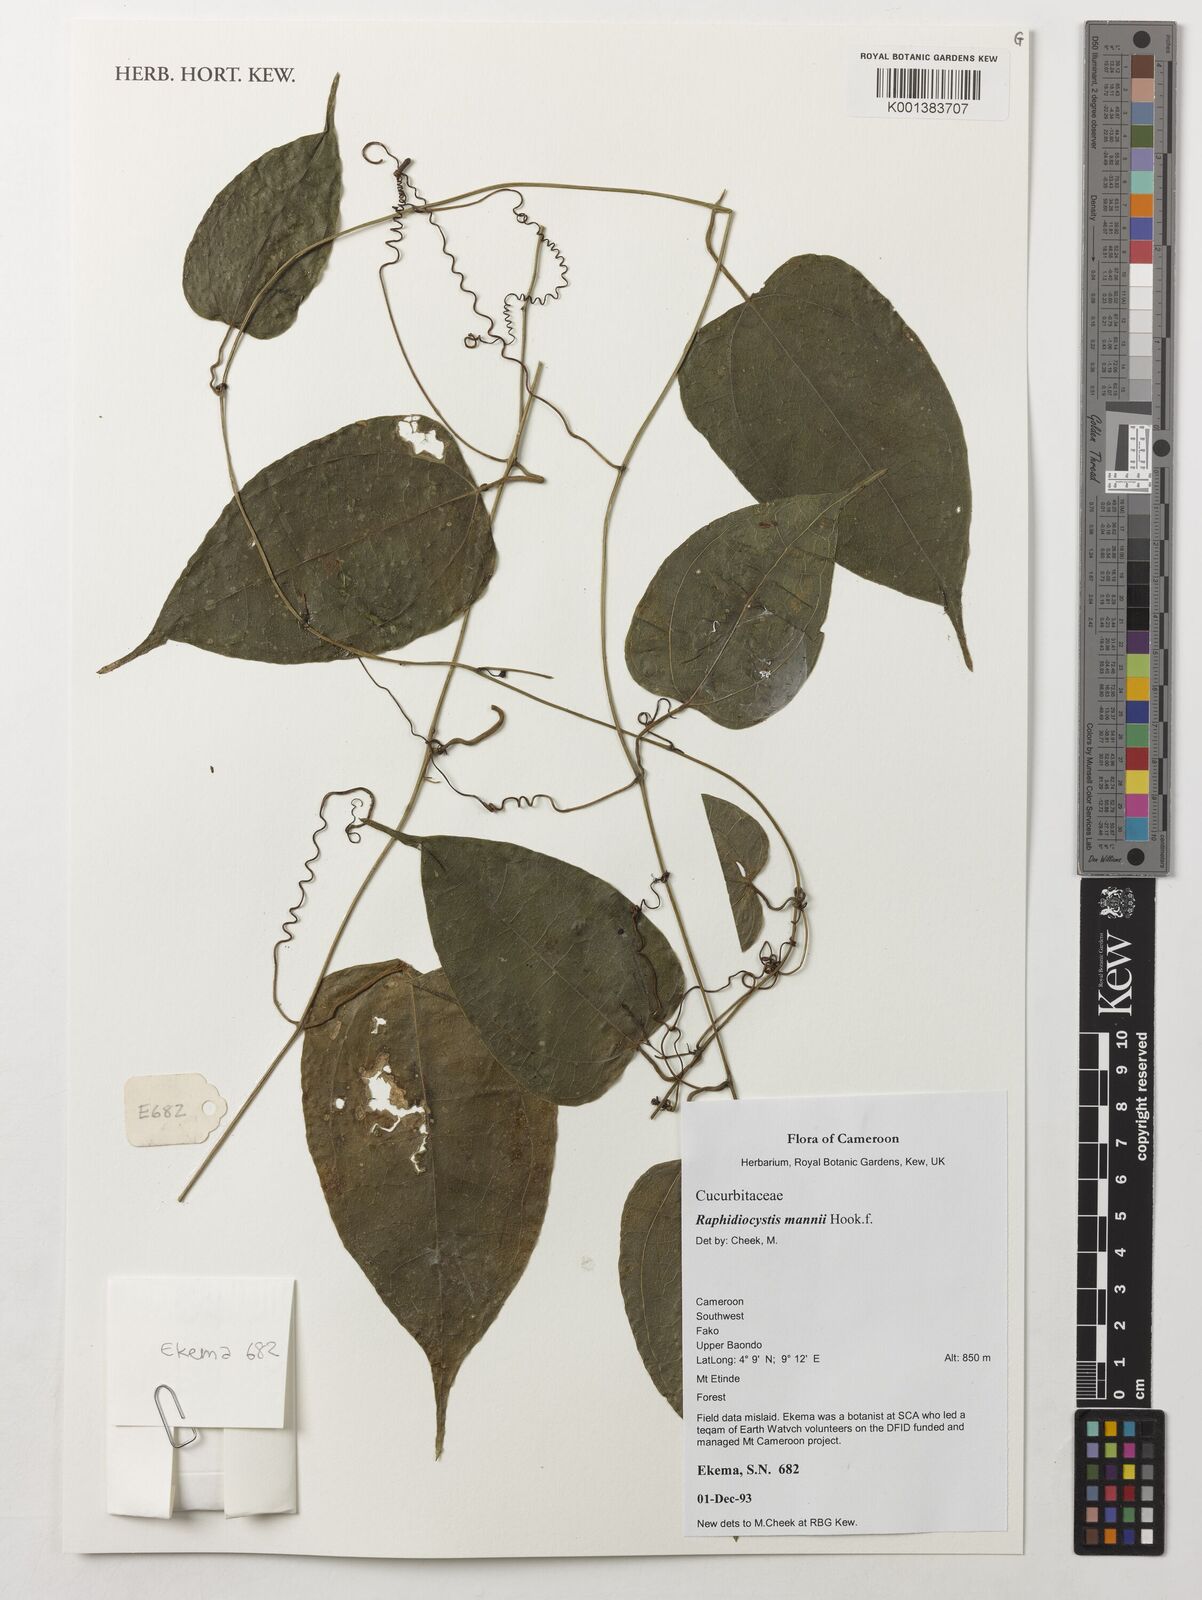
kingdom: Plantae
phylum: Tracheophyta
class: Magnoliopsida
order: Cucurbitales
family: Cucurbitaceae
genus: Raphidiocystis
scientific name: Raphidiocystis mannii
